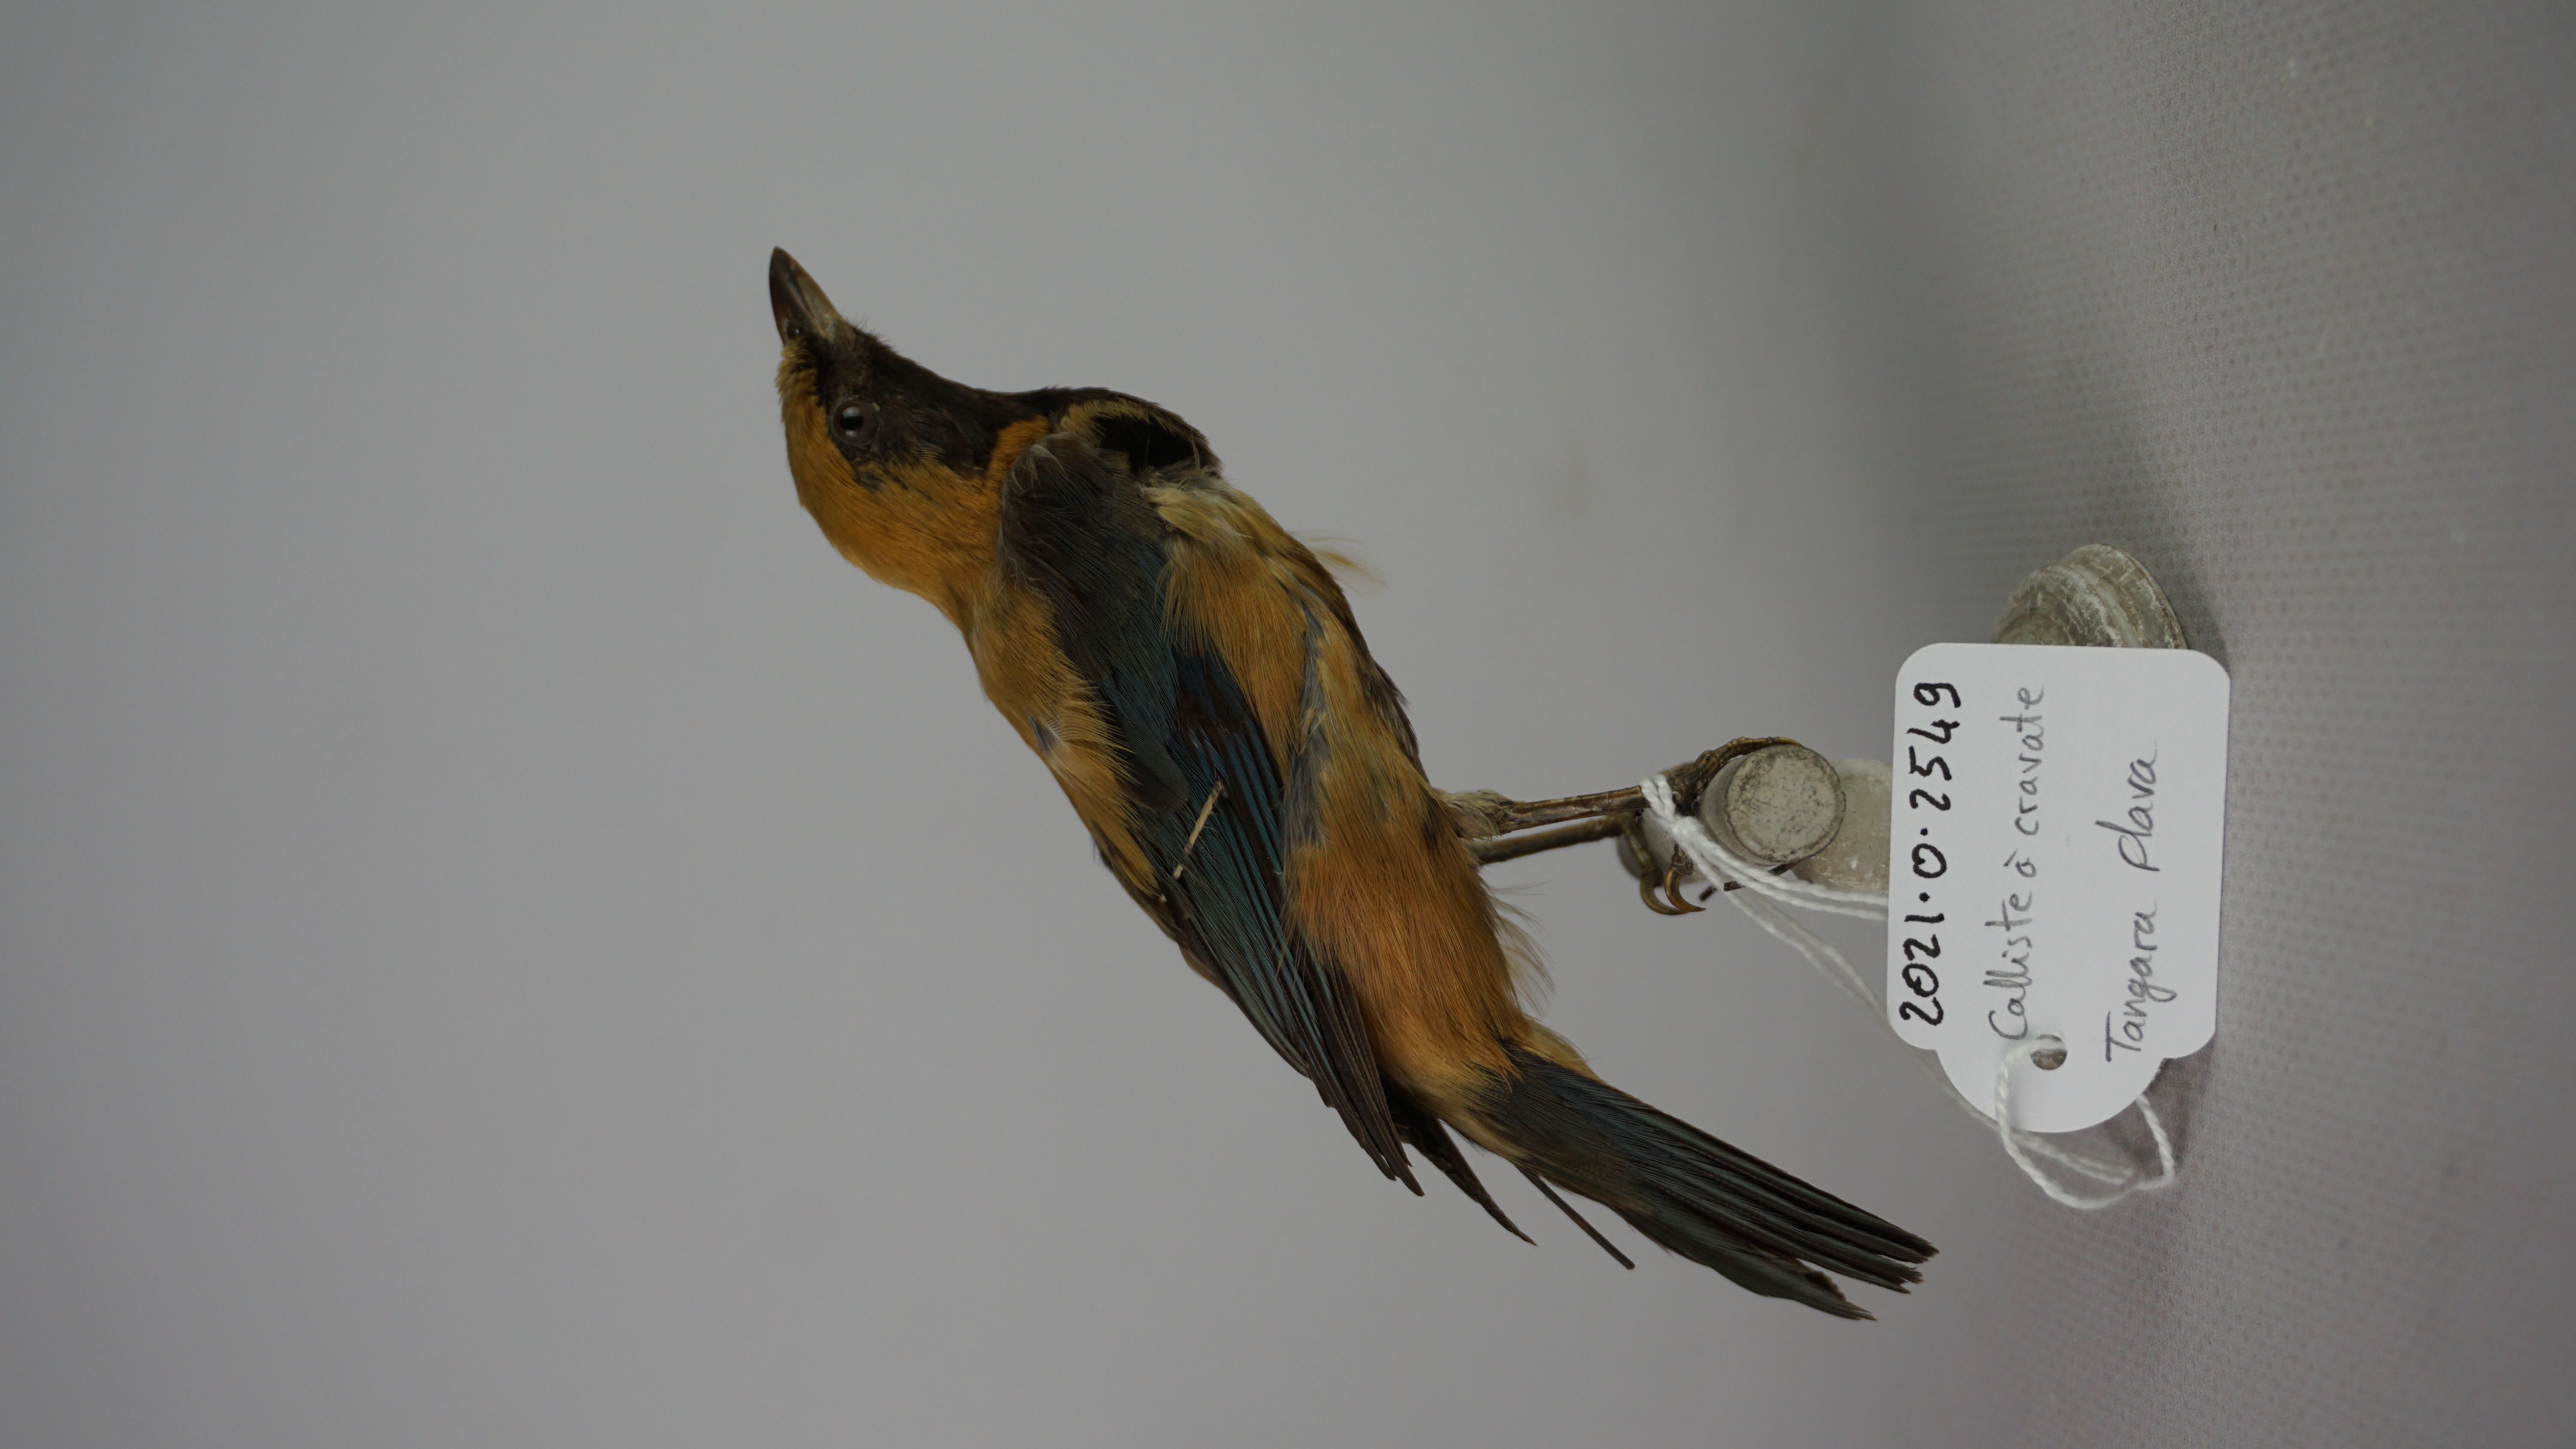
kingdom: Animalia
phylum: Chordata
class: Aves
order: Passeriformes
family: Thraupidae
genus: Stilpnia
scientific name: Stilpnia cayana
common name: Burnished-buff tanager
